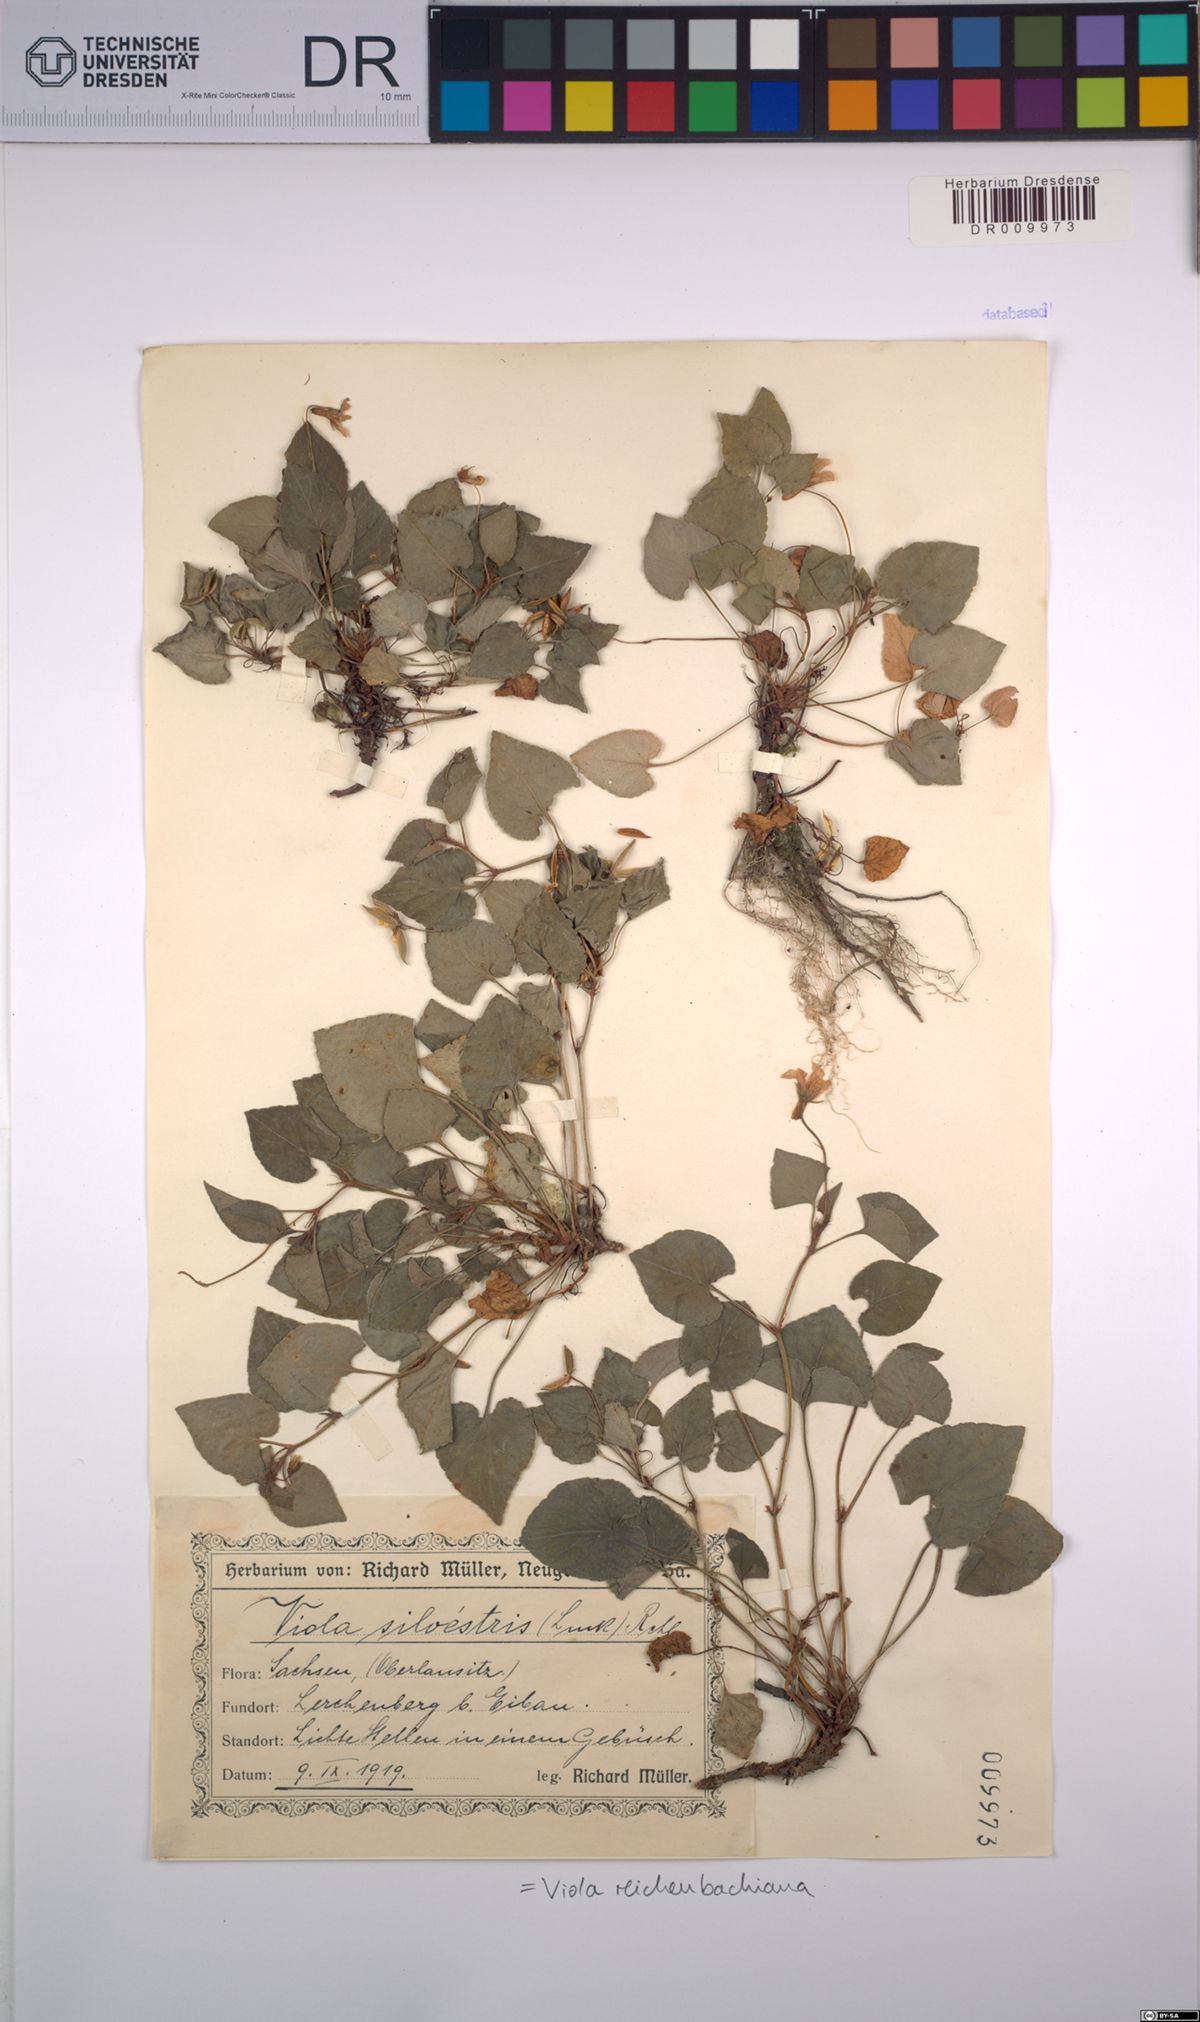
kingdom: Plantae
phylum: Tracheophyta
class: Magnoliopsida
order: Malpighiales
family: Violaceae
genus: Viola
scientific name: Viola reichenbachiana
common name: Early dog-violet
